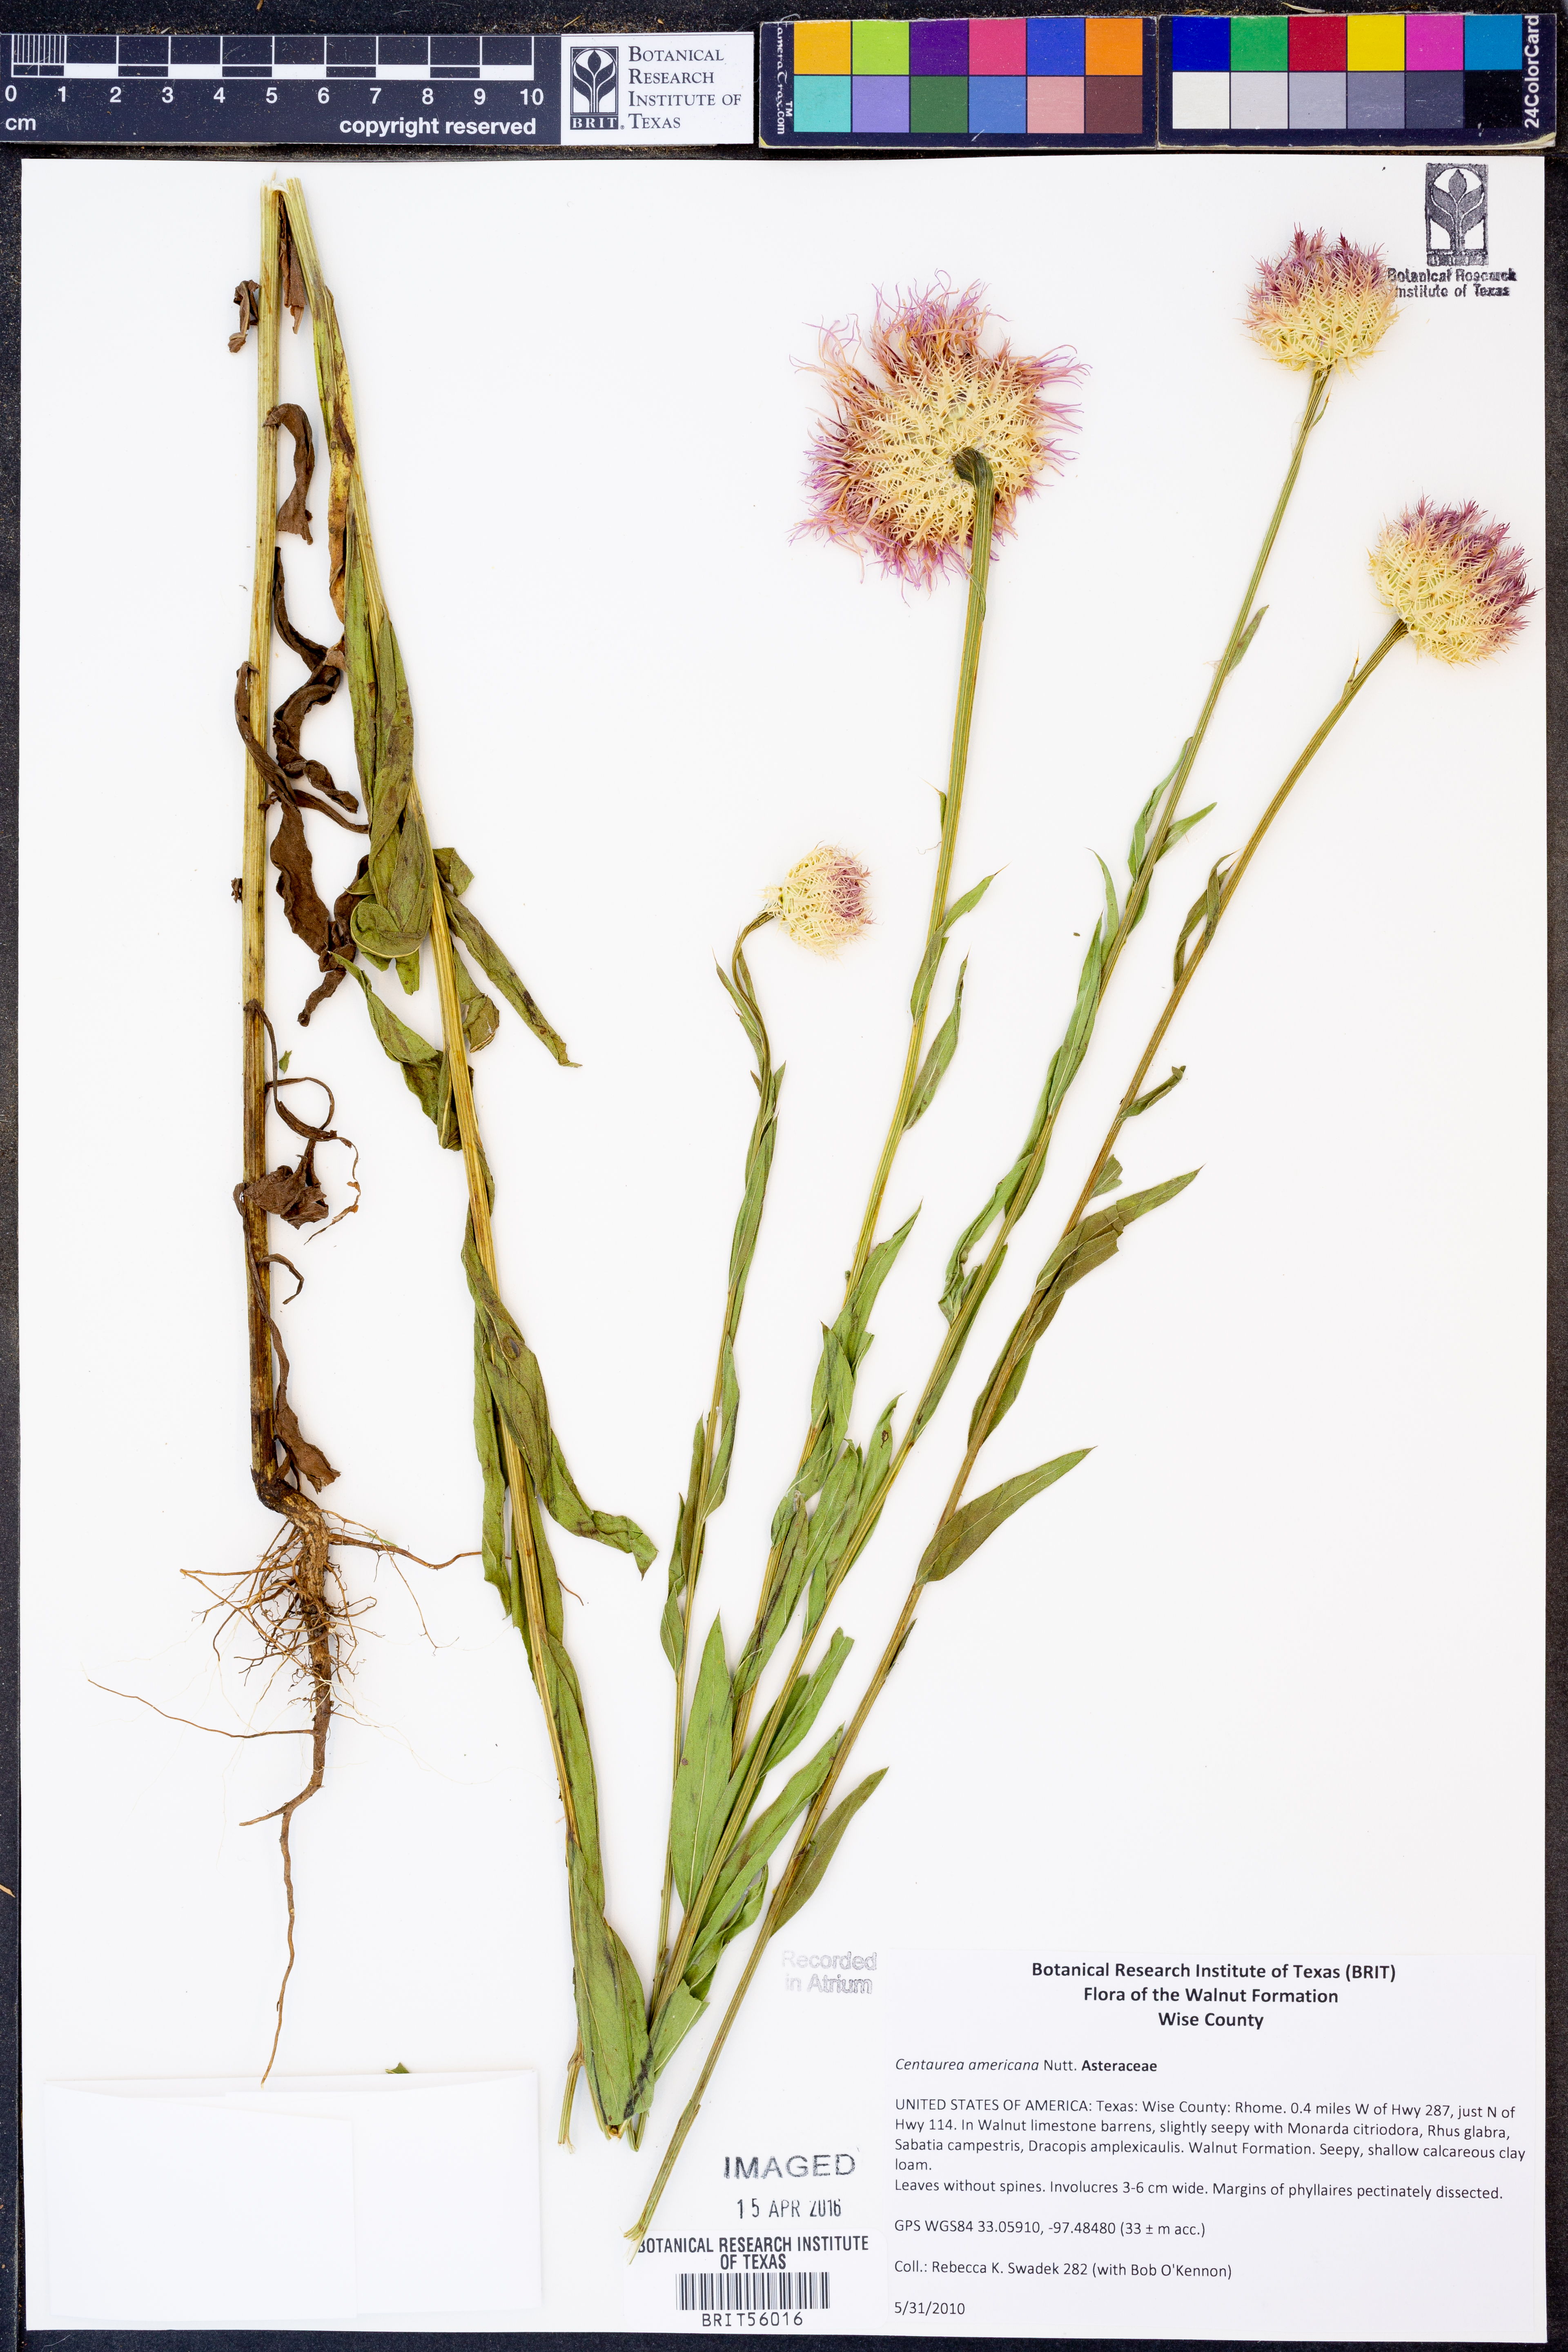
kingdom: Plantae
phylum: Tracheophyta
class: Magnoliopsida
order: Asterales
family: Asteraceae
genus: Plectocephalus
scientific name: Plectocephalus americanus
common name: American basket-flower
